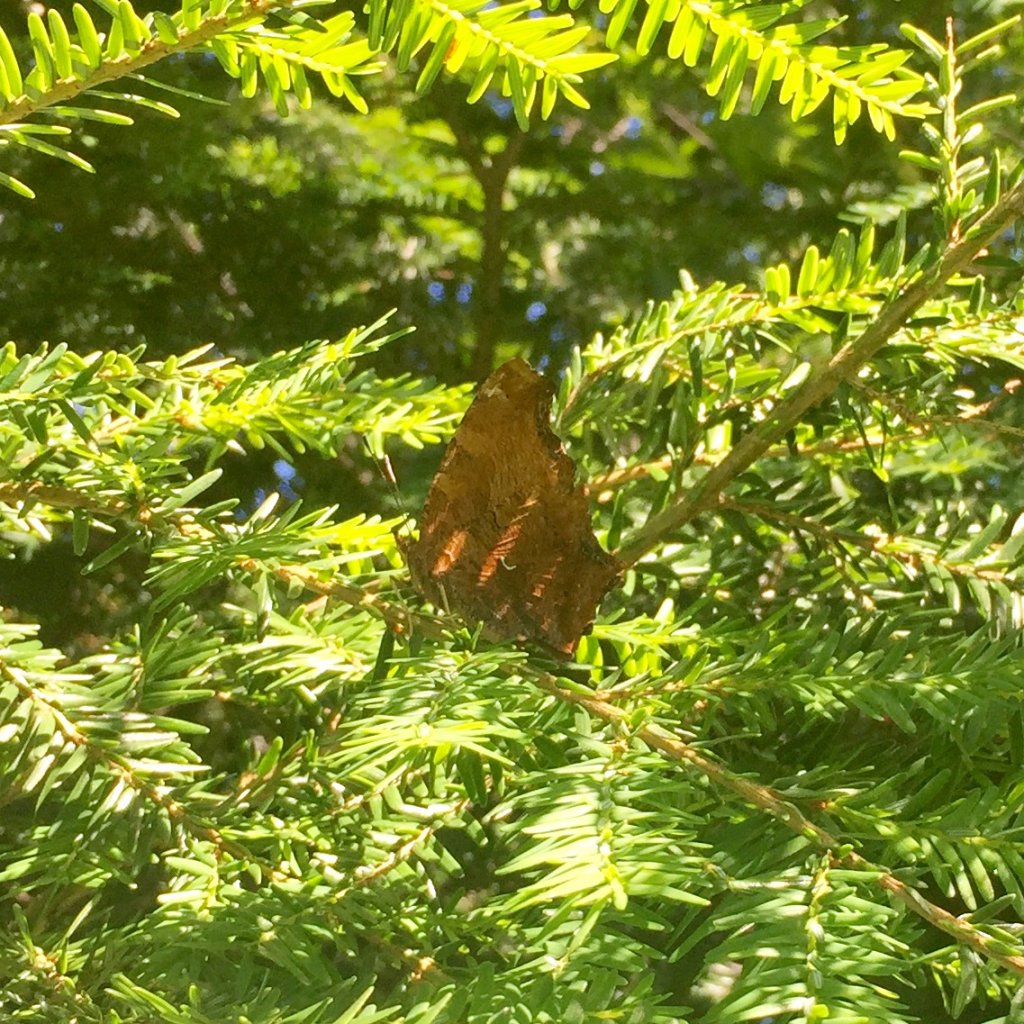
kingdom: Animalia
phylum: Arthropoda
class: Insecta
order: Lepidoptera
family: Nymphalidae
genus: Polygonia
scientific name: Polygonia comma
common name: Eastern Comma
